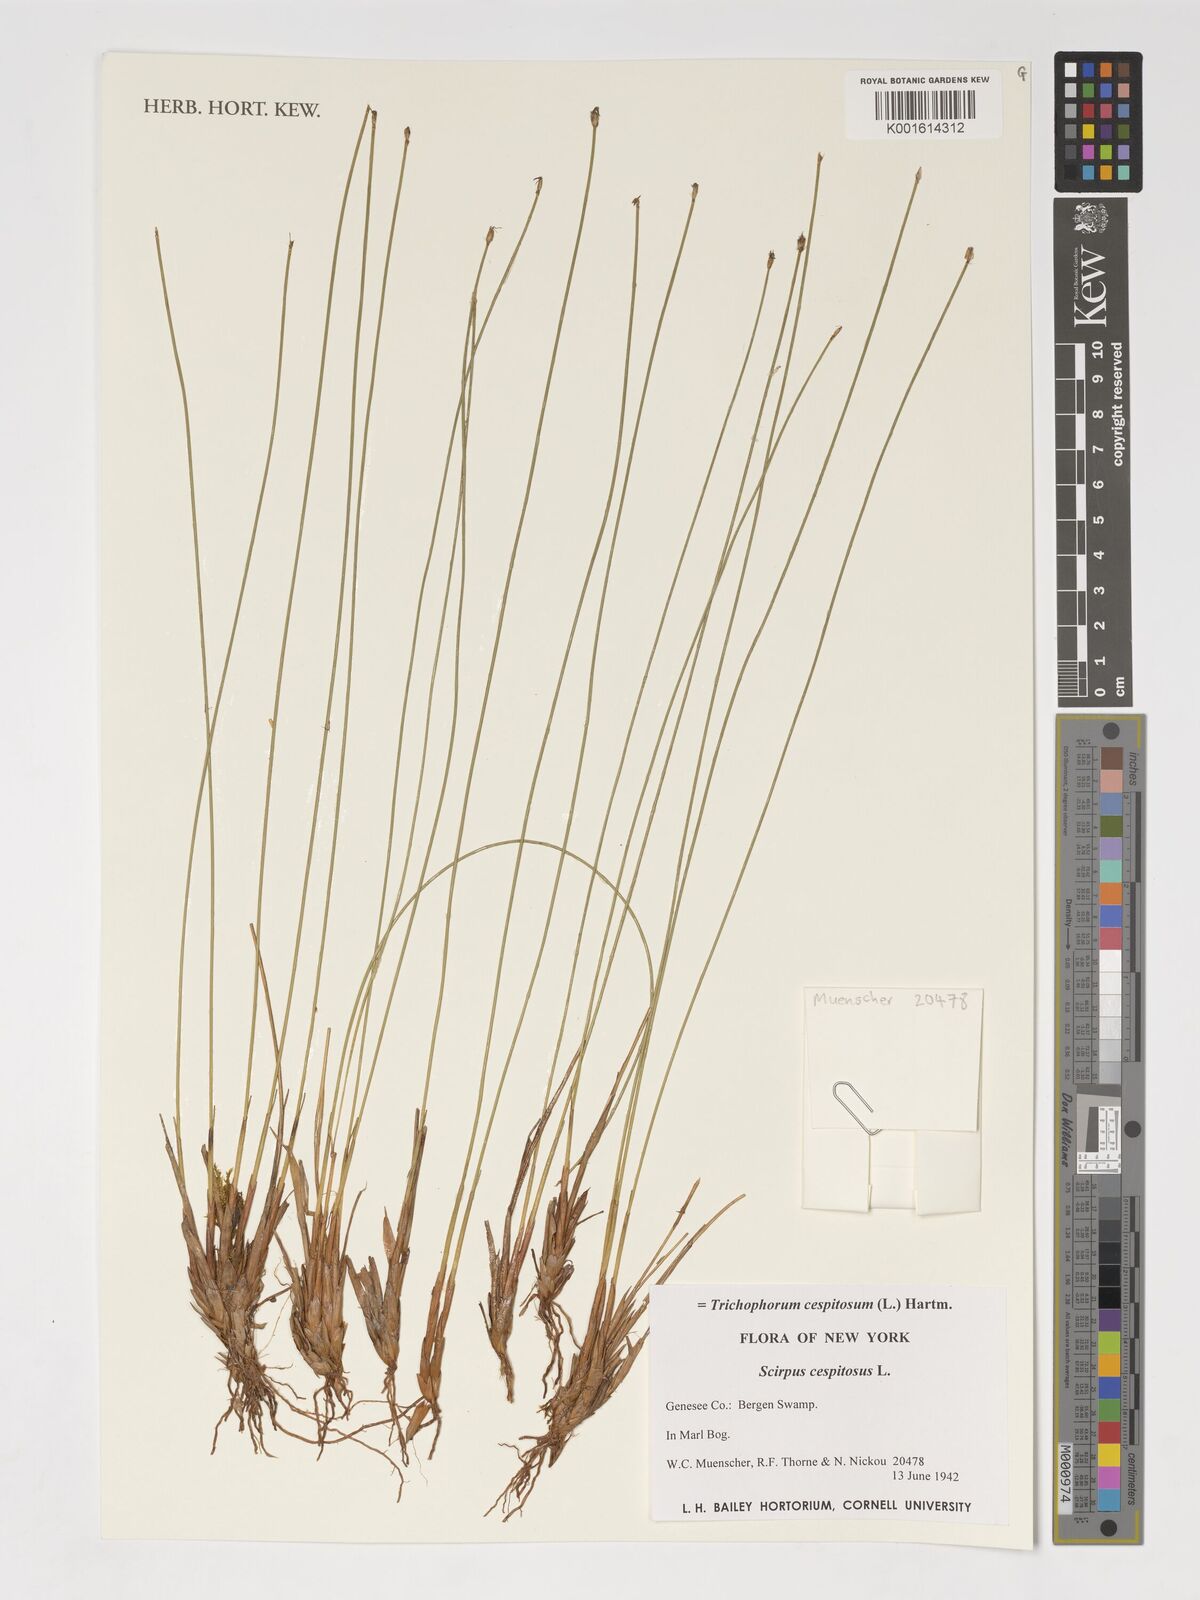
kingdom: Plantae
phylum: Tracheophyta
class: Liliopsida
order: Poales
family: Cyperaceae
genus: Trichophorum
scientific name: Trichophorum cespitosum
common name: Cespitose bulrush
